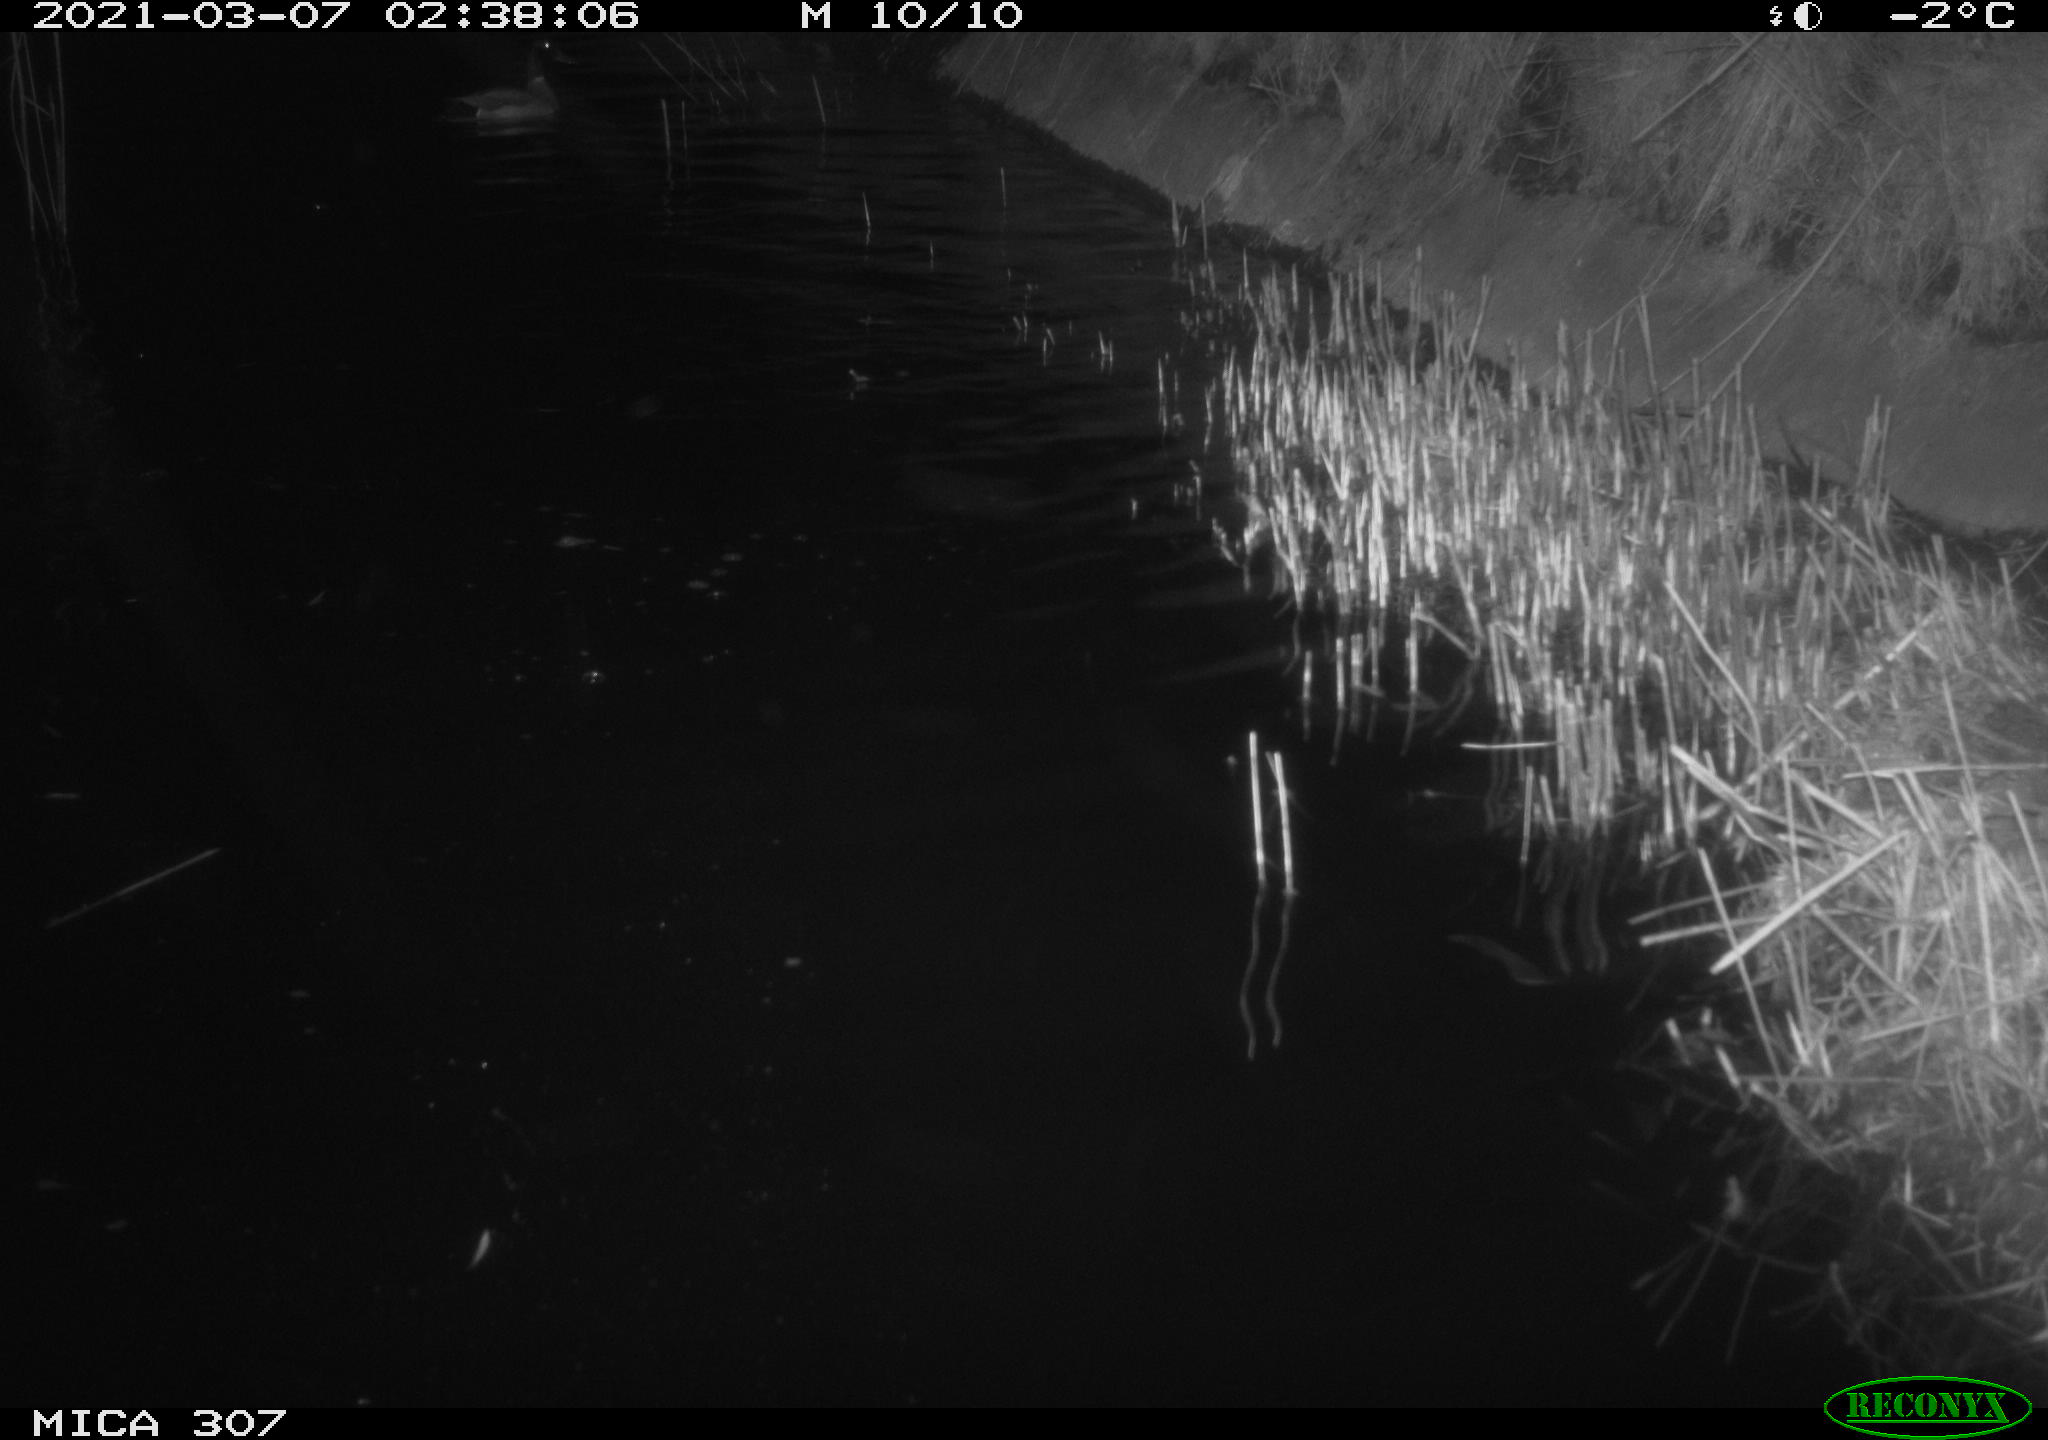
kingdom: Animalia
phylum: Chordata
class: Aves
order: Anseriformes
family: Anatidae
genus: Anas
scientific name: Anas platyrhynchos
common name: Mallard
